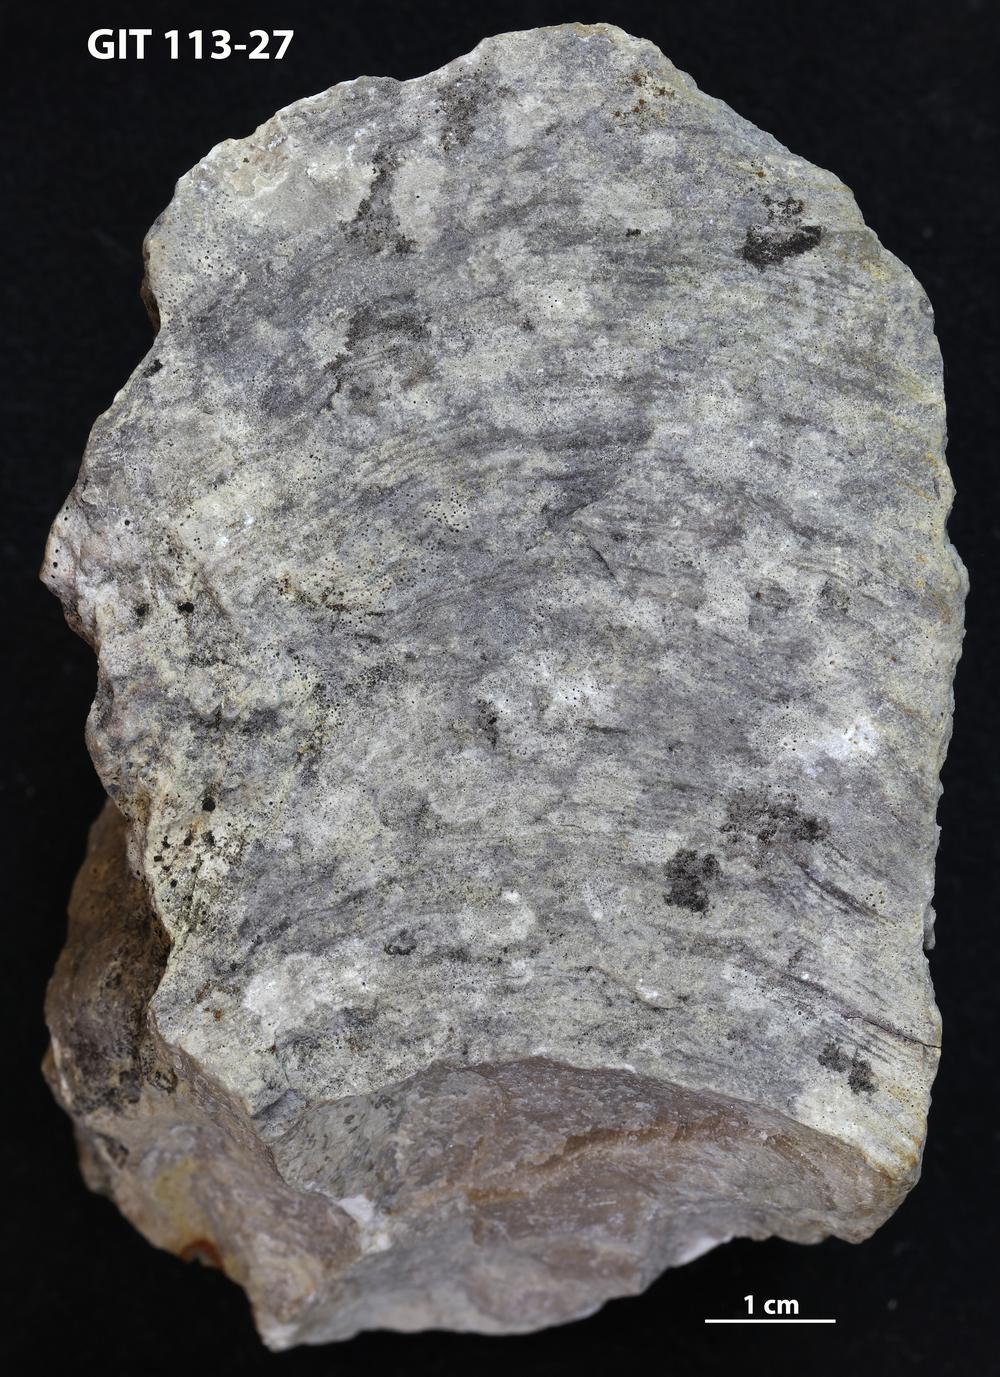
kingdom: Animalia
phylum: Porifera
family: Clathrodictyidae
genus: Clathrodictyon
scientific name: Clathrodictyon microundulatum
